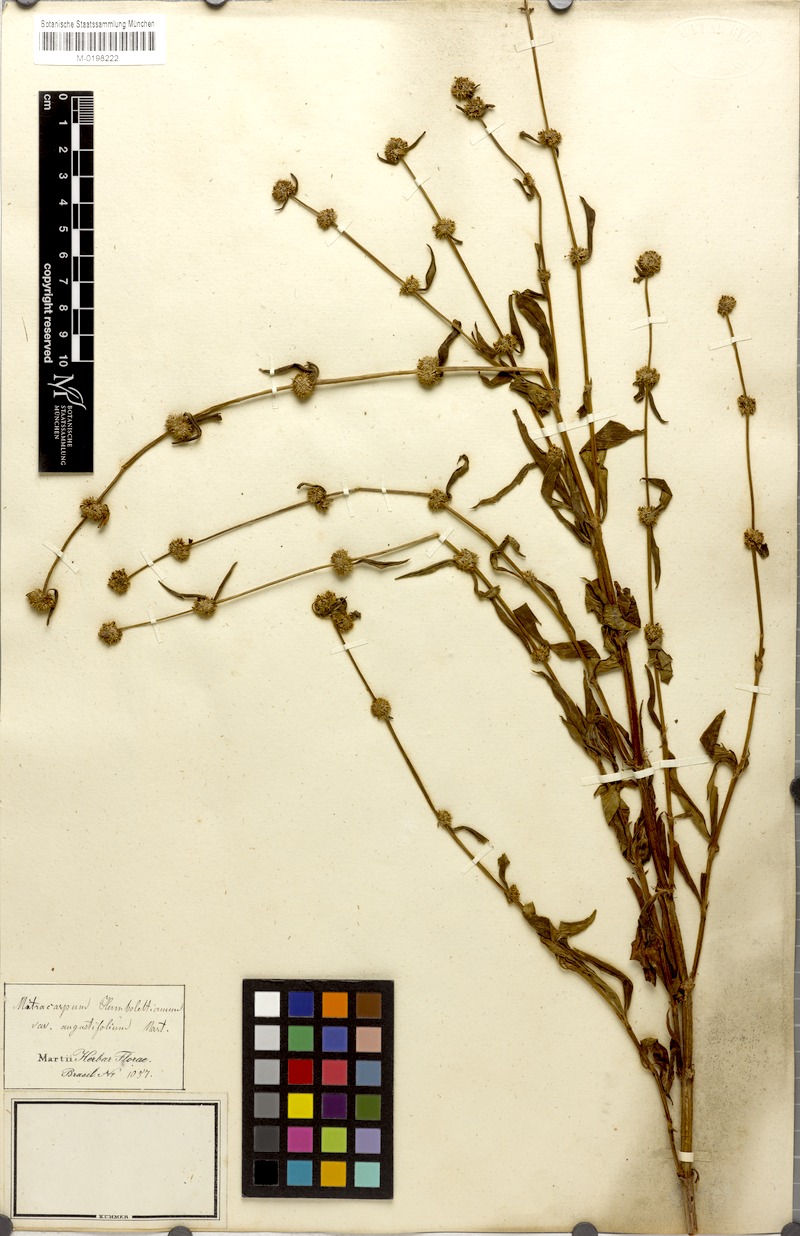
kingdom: Plantae
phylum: Tracheophyta
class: Magnoliopsida
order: Gentianales
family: Rubiaceae
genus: Mitracarpus
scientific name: Mitracarpus frigidus
